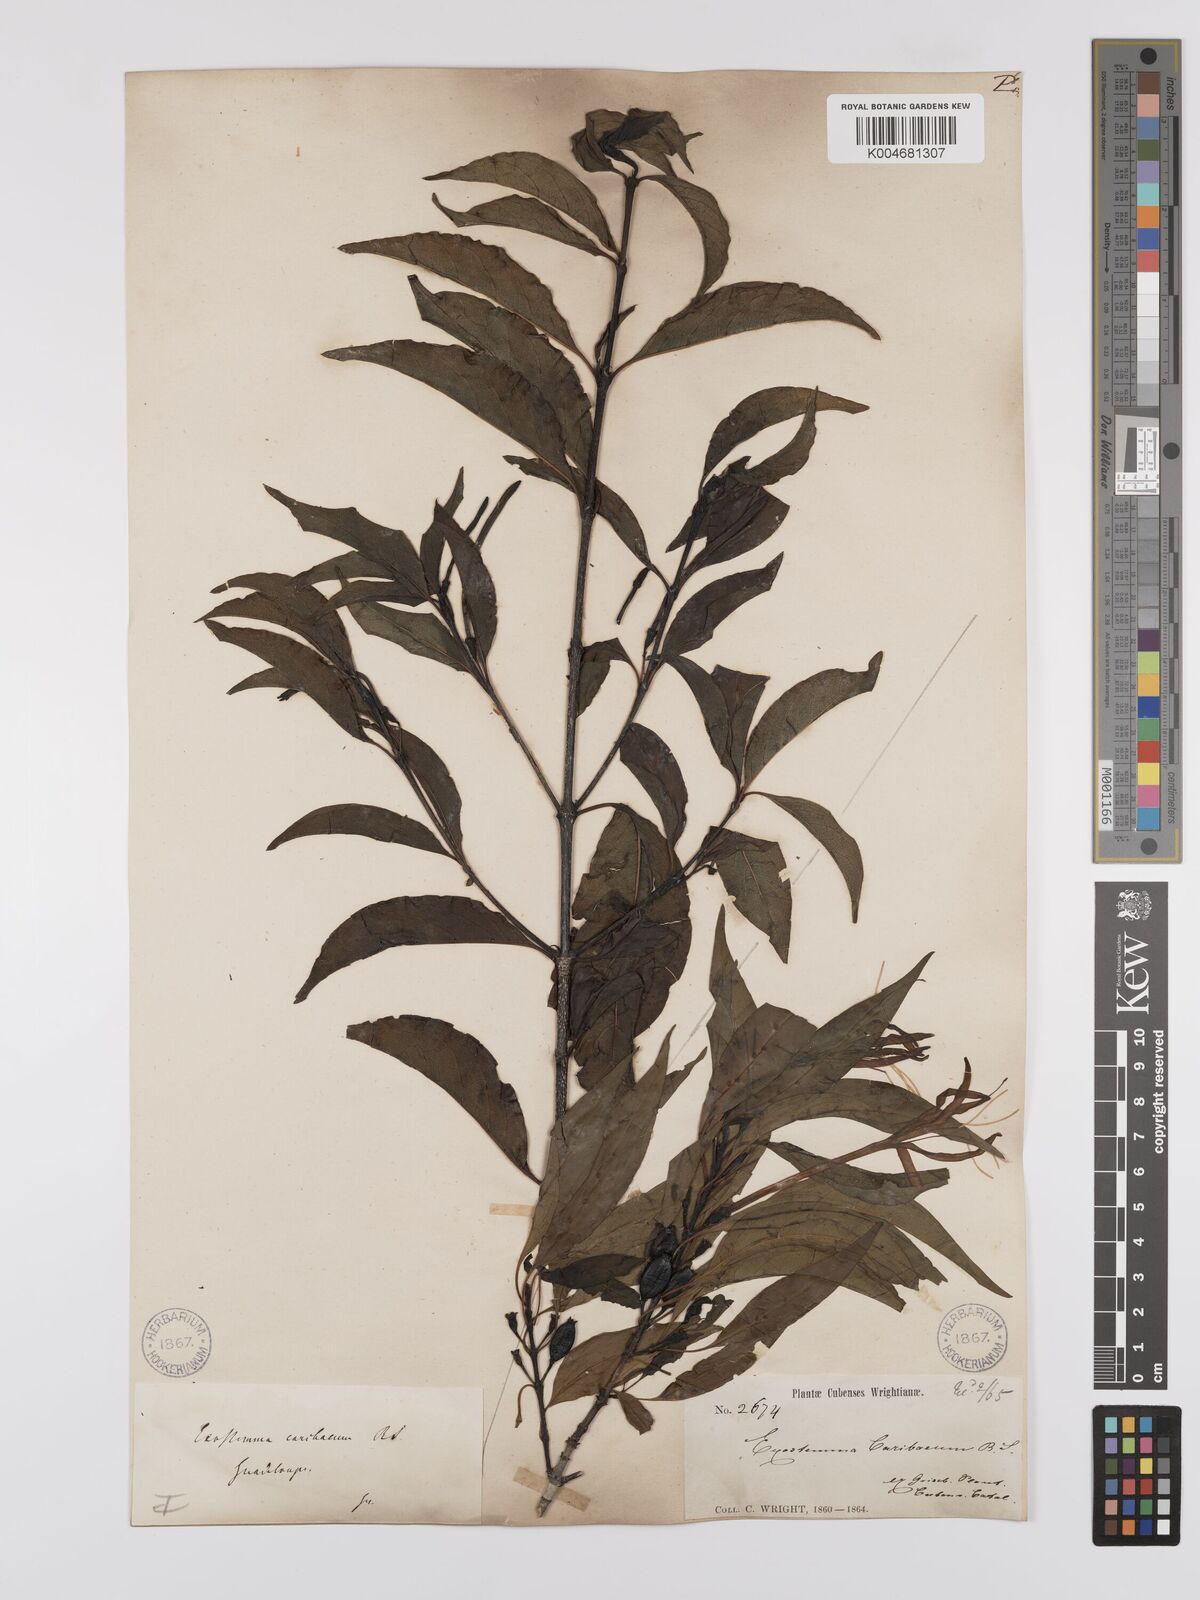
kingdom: Plantae
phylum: Tracheophyta
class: Magnoliopsida
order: Gentianales
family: Rubiaceae
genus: Exostema
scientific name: Exostema caribaeum
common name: Princewood
